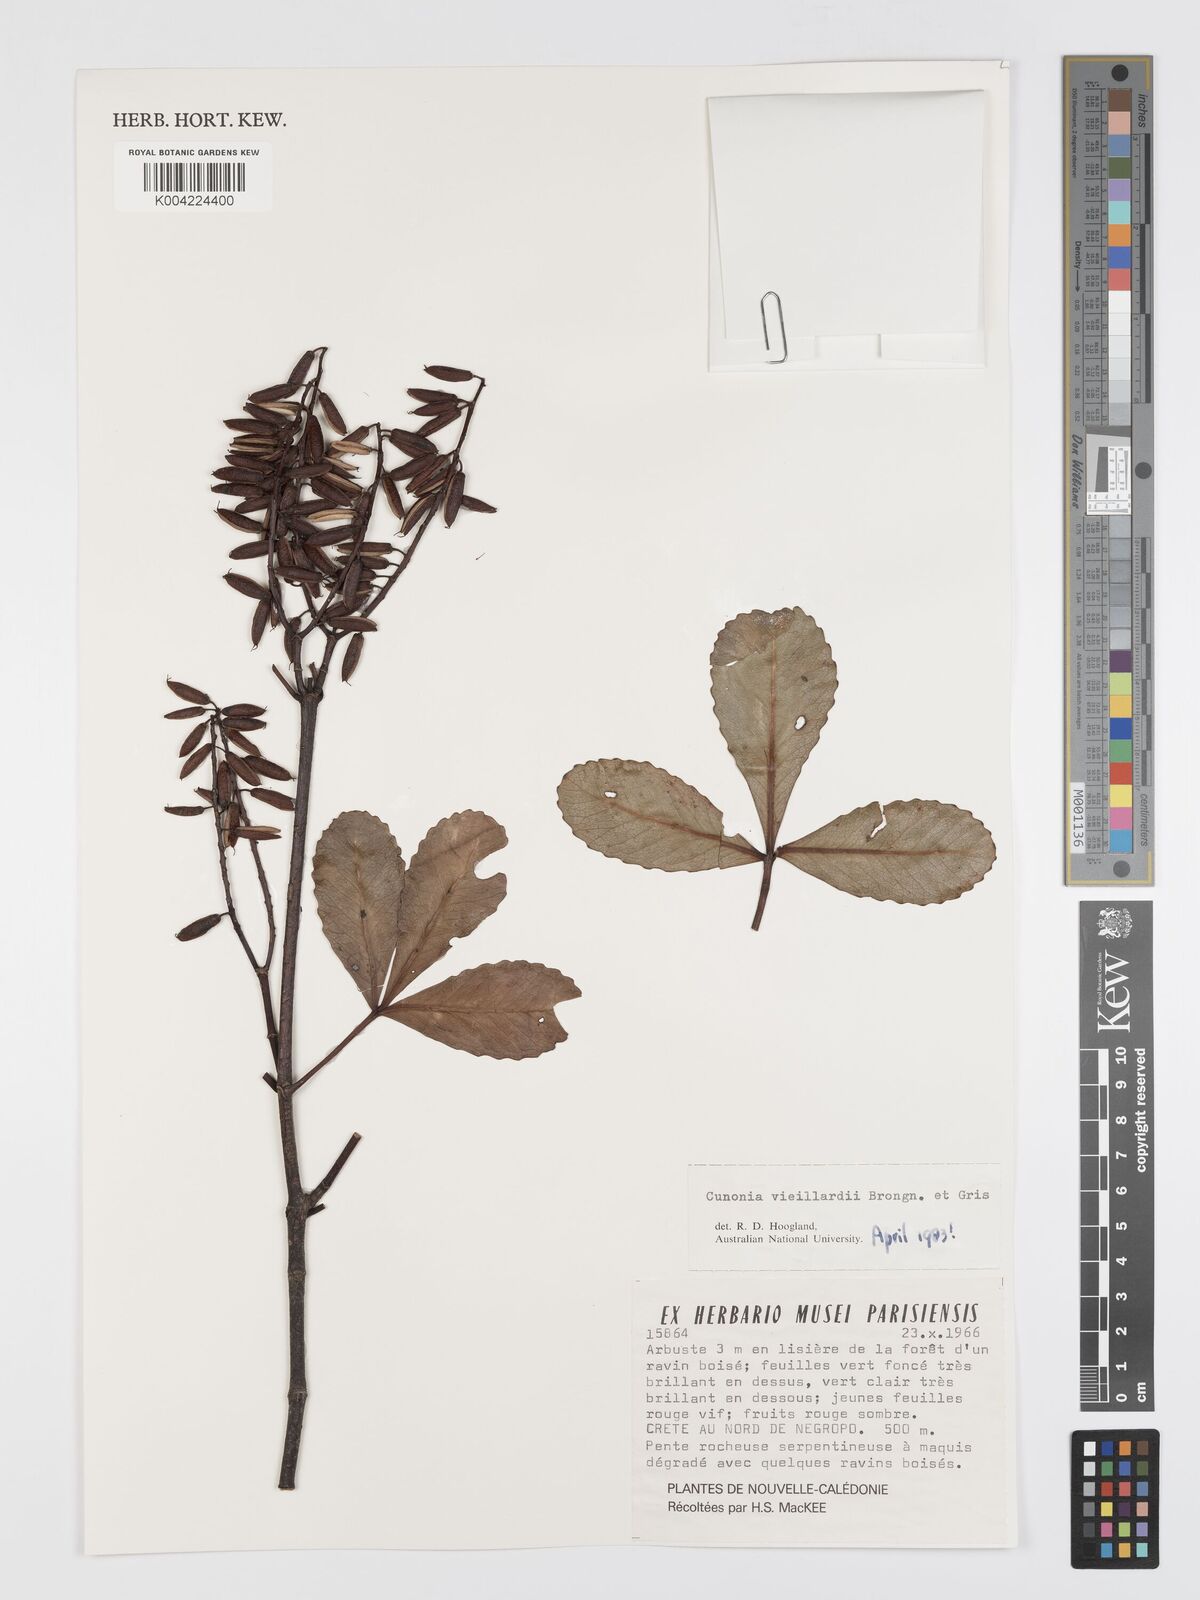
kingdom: Plantae
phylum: Tracheophyta
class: Magnoliopsida
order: Oxalidales
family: Cunoniaceae
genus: Cunonia
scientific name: Cunonia vieillardii
